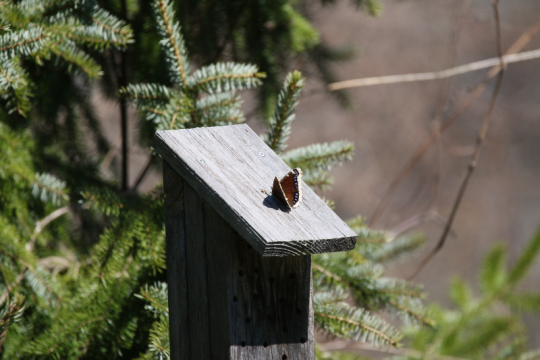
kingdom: Animalia
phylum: Arthropoda
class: Insecta
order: Lepidoptera
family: Nymphalidae
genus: Nymphalis
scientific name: Nymphalis antiopa
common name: Mourning Cloak
